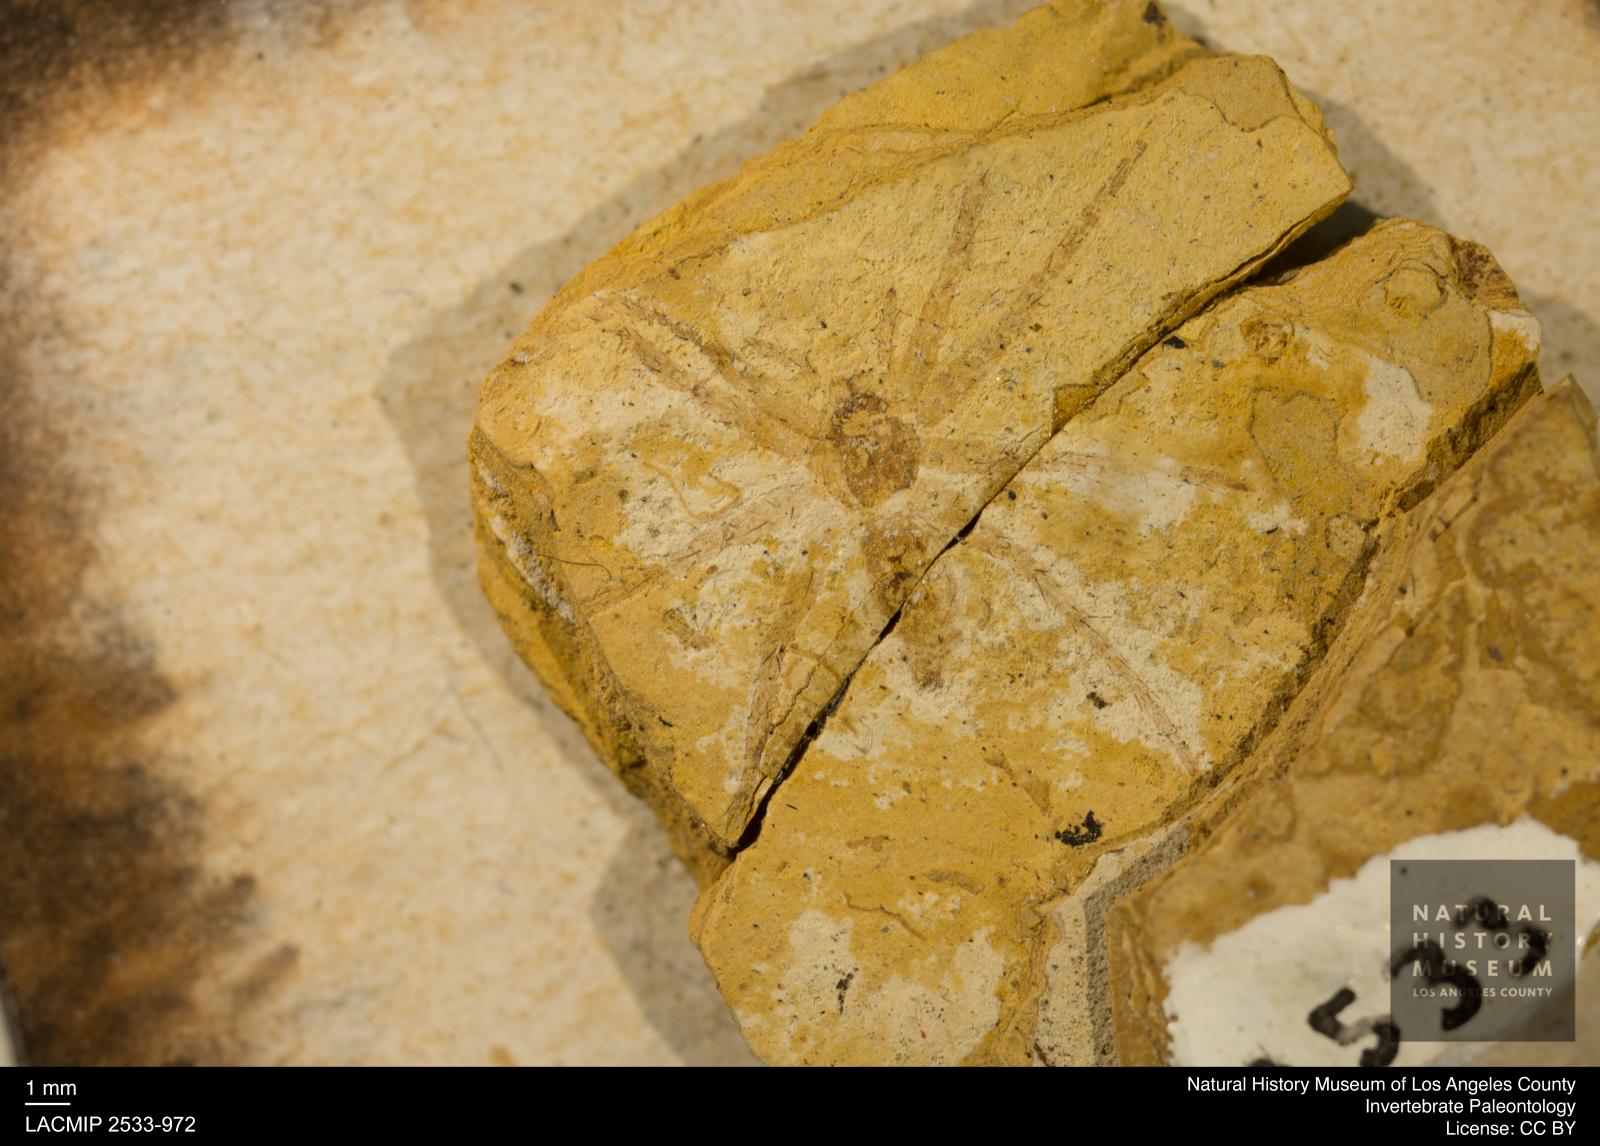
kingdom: Animalia
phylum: Arthropoda
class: Arachnida
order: Araneae
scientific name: Araneae
